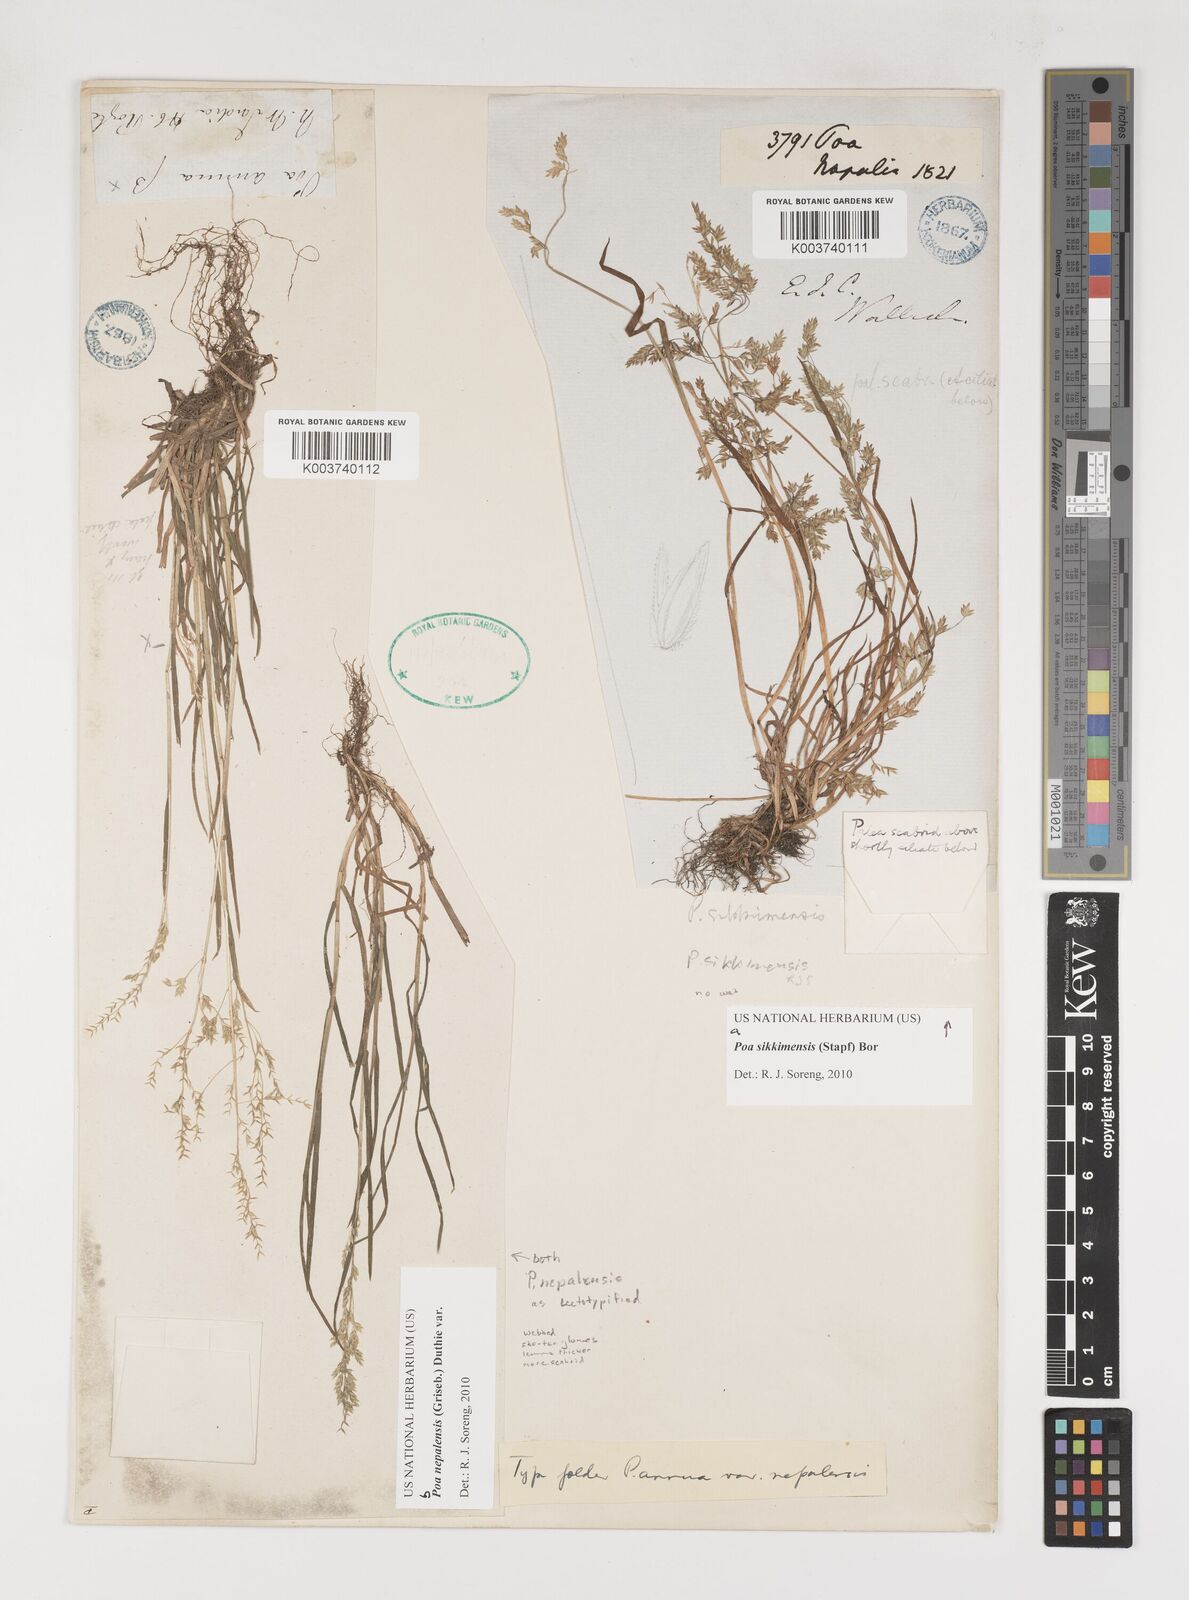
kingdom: Plantae
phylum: Tracheophyta
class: Liliopsida
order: Poales
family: Poaceae
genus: Poa
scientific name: Poa sikkimensis
